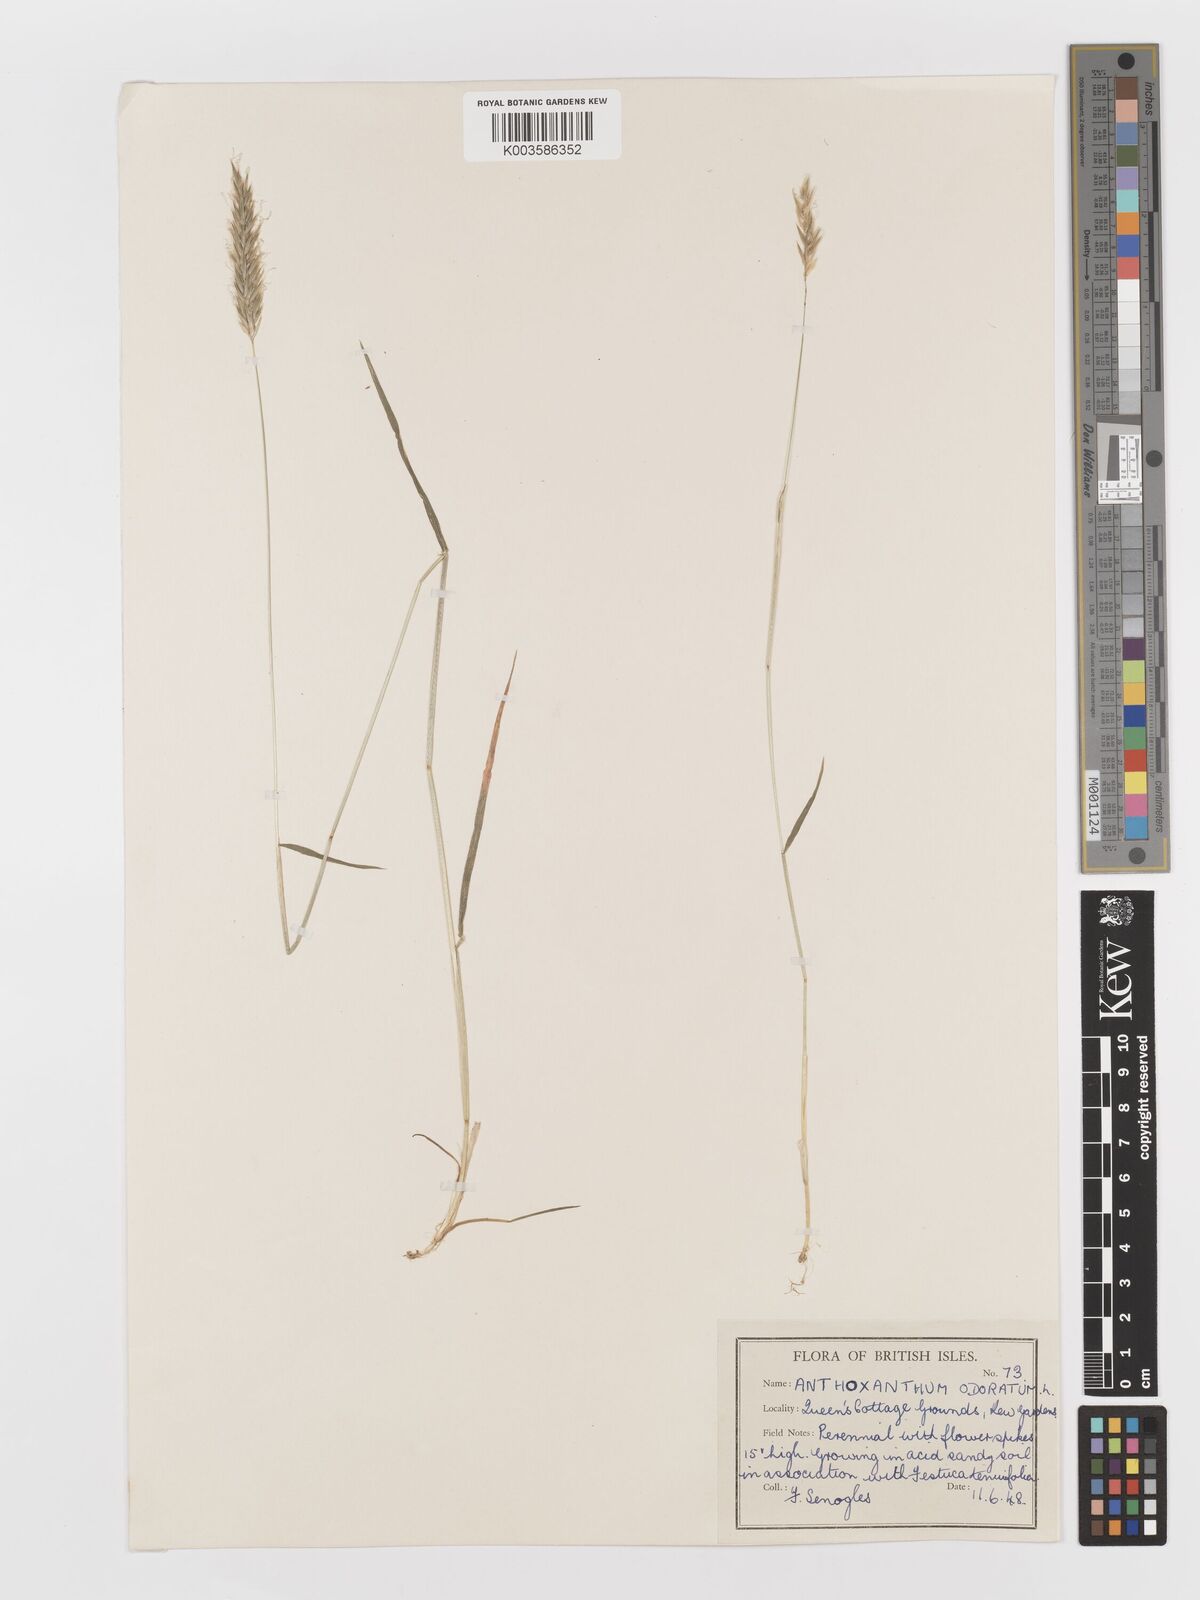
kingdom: Plantae
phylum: Tracheophyta
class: Liliopsida
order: Poales
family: Poaceae
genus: Anthoxanthum
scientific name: Anthoxanthum odoratum
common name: Sweet vernalgrass
